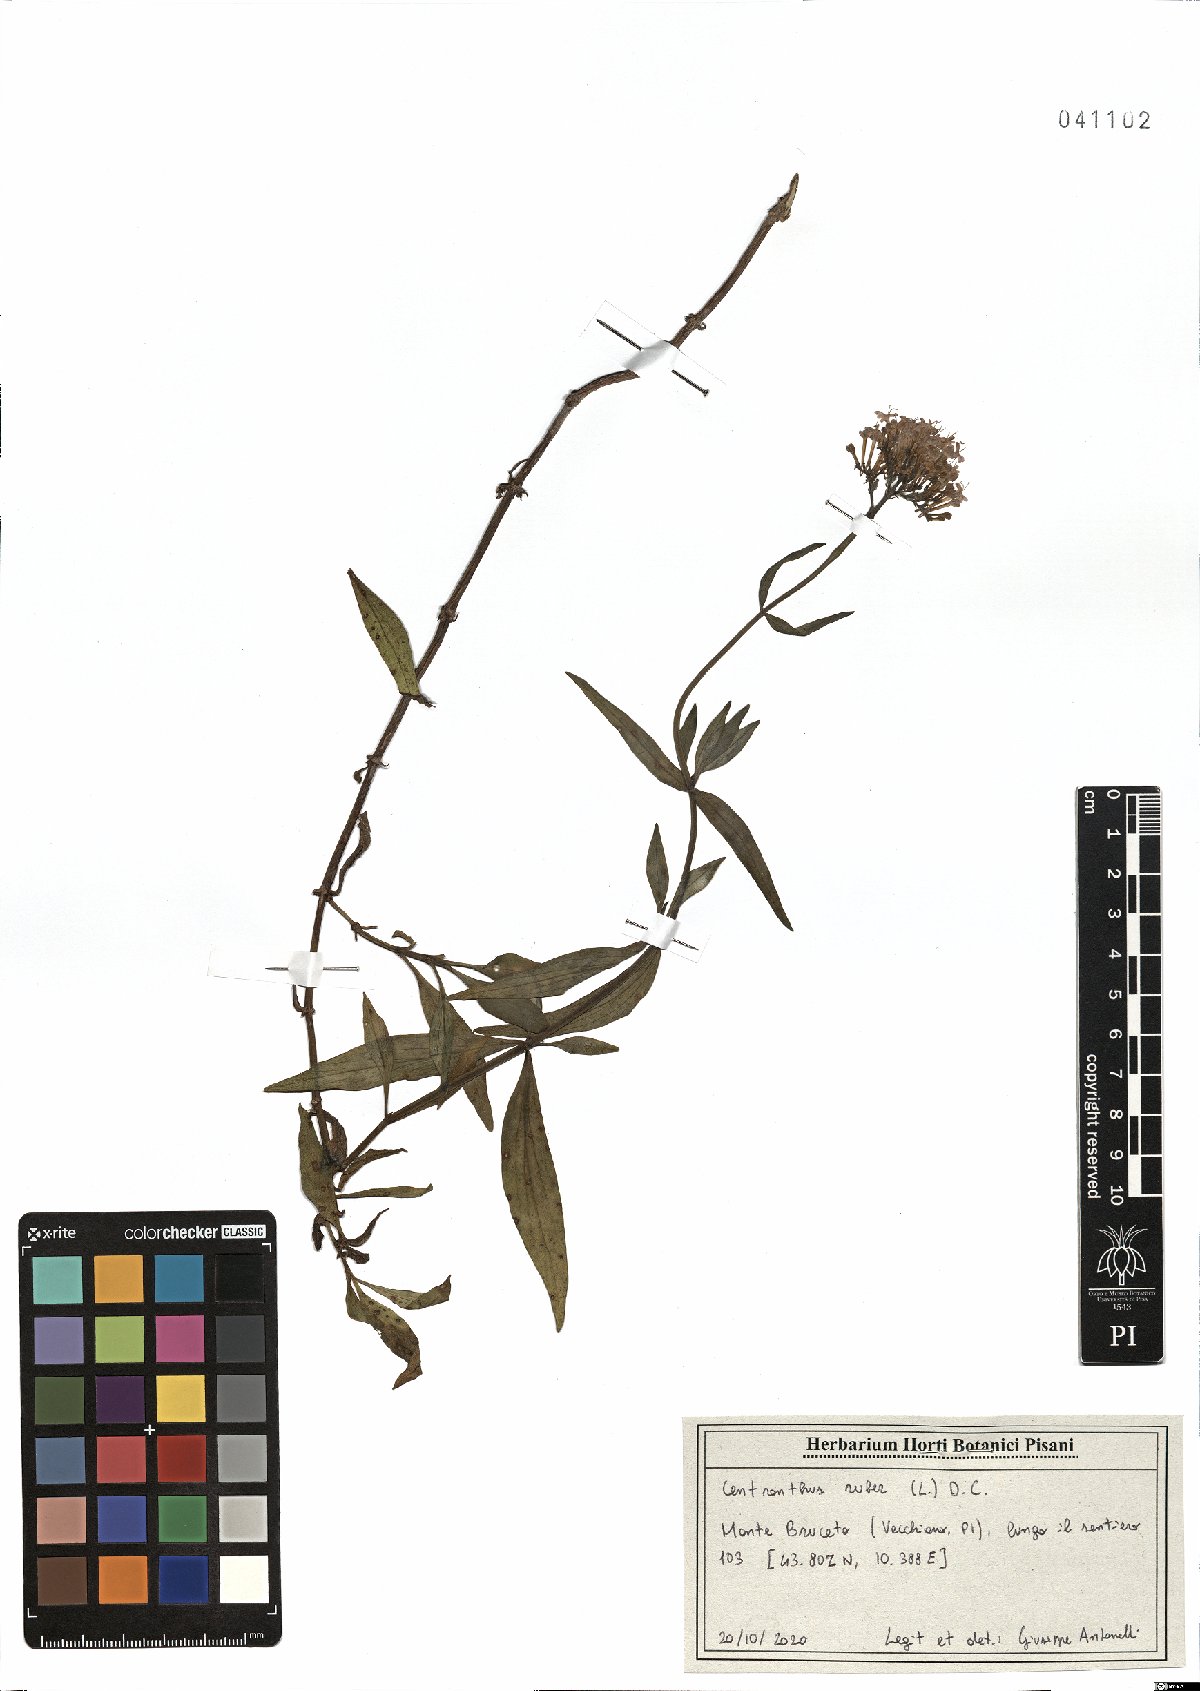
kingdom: Plantae
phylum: Tracheophyta
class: Magnoliopsida
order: Dipsacales
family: Caprifoliaceae
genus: Centranthus
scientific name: Centranthus ruber
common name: Red valerian
